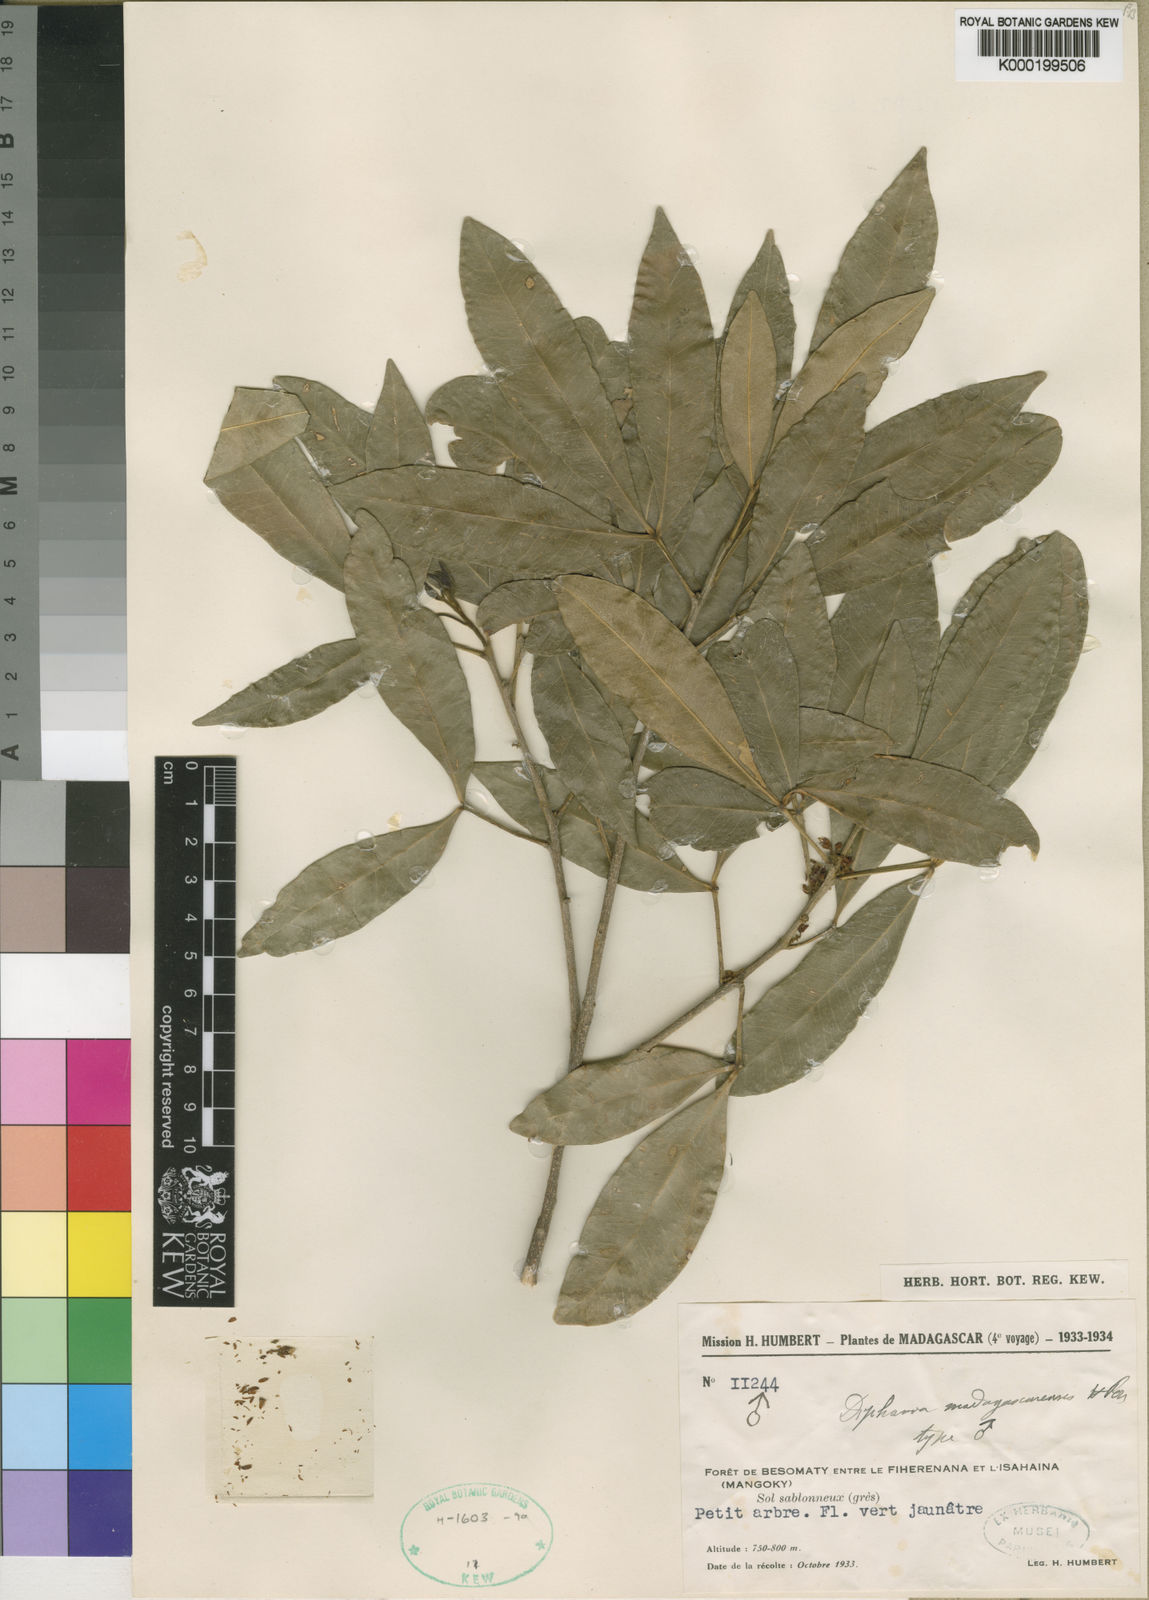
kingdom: Plantae
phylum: Tracheophyta
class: Magnoliopsida
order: Sapindales
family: Rutaceae
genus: Vepris
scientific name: Vepris boiviniana
